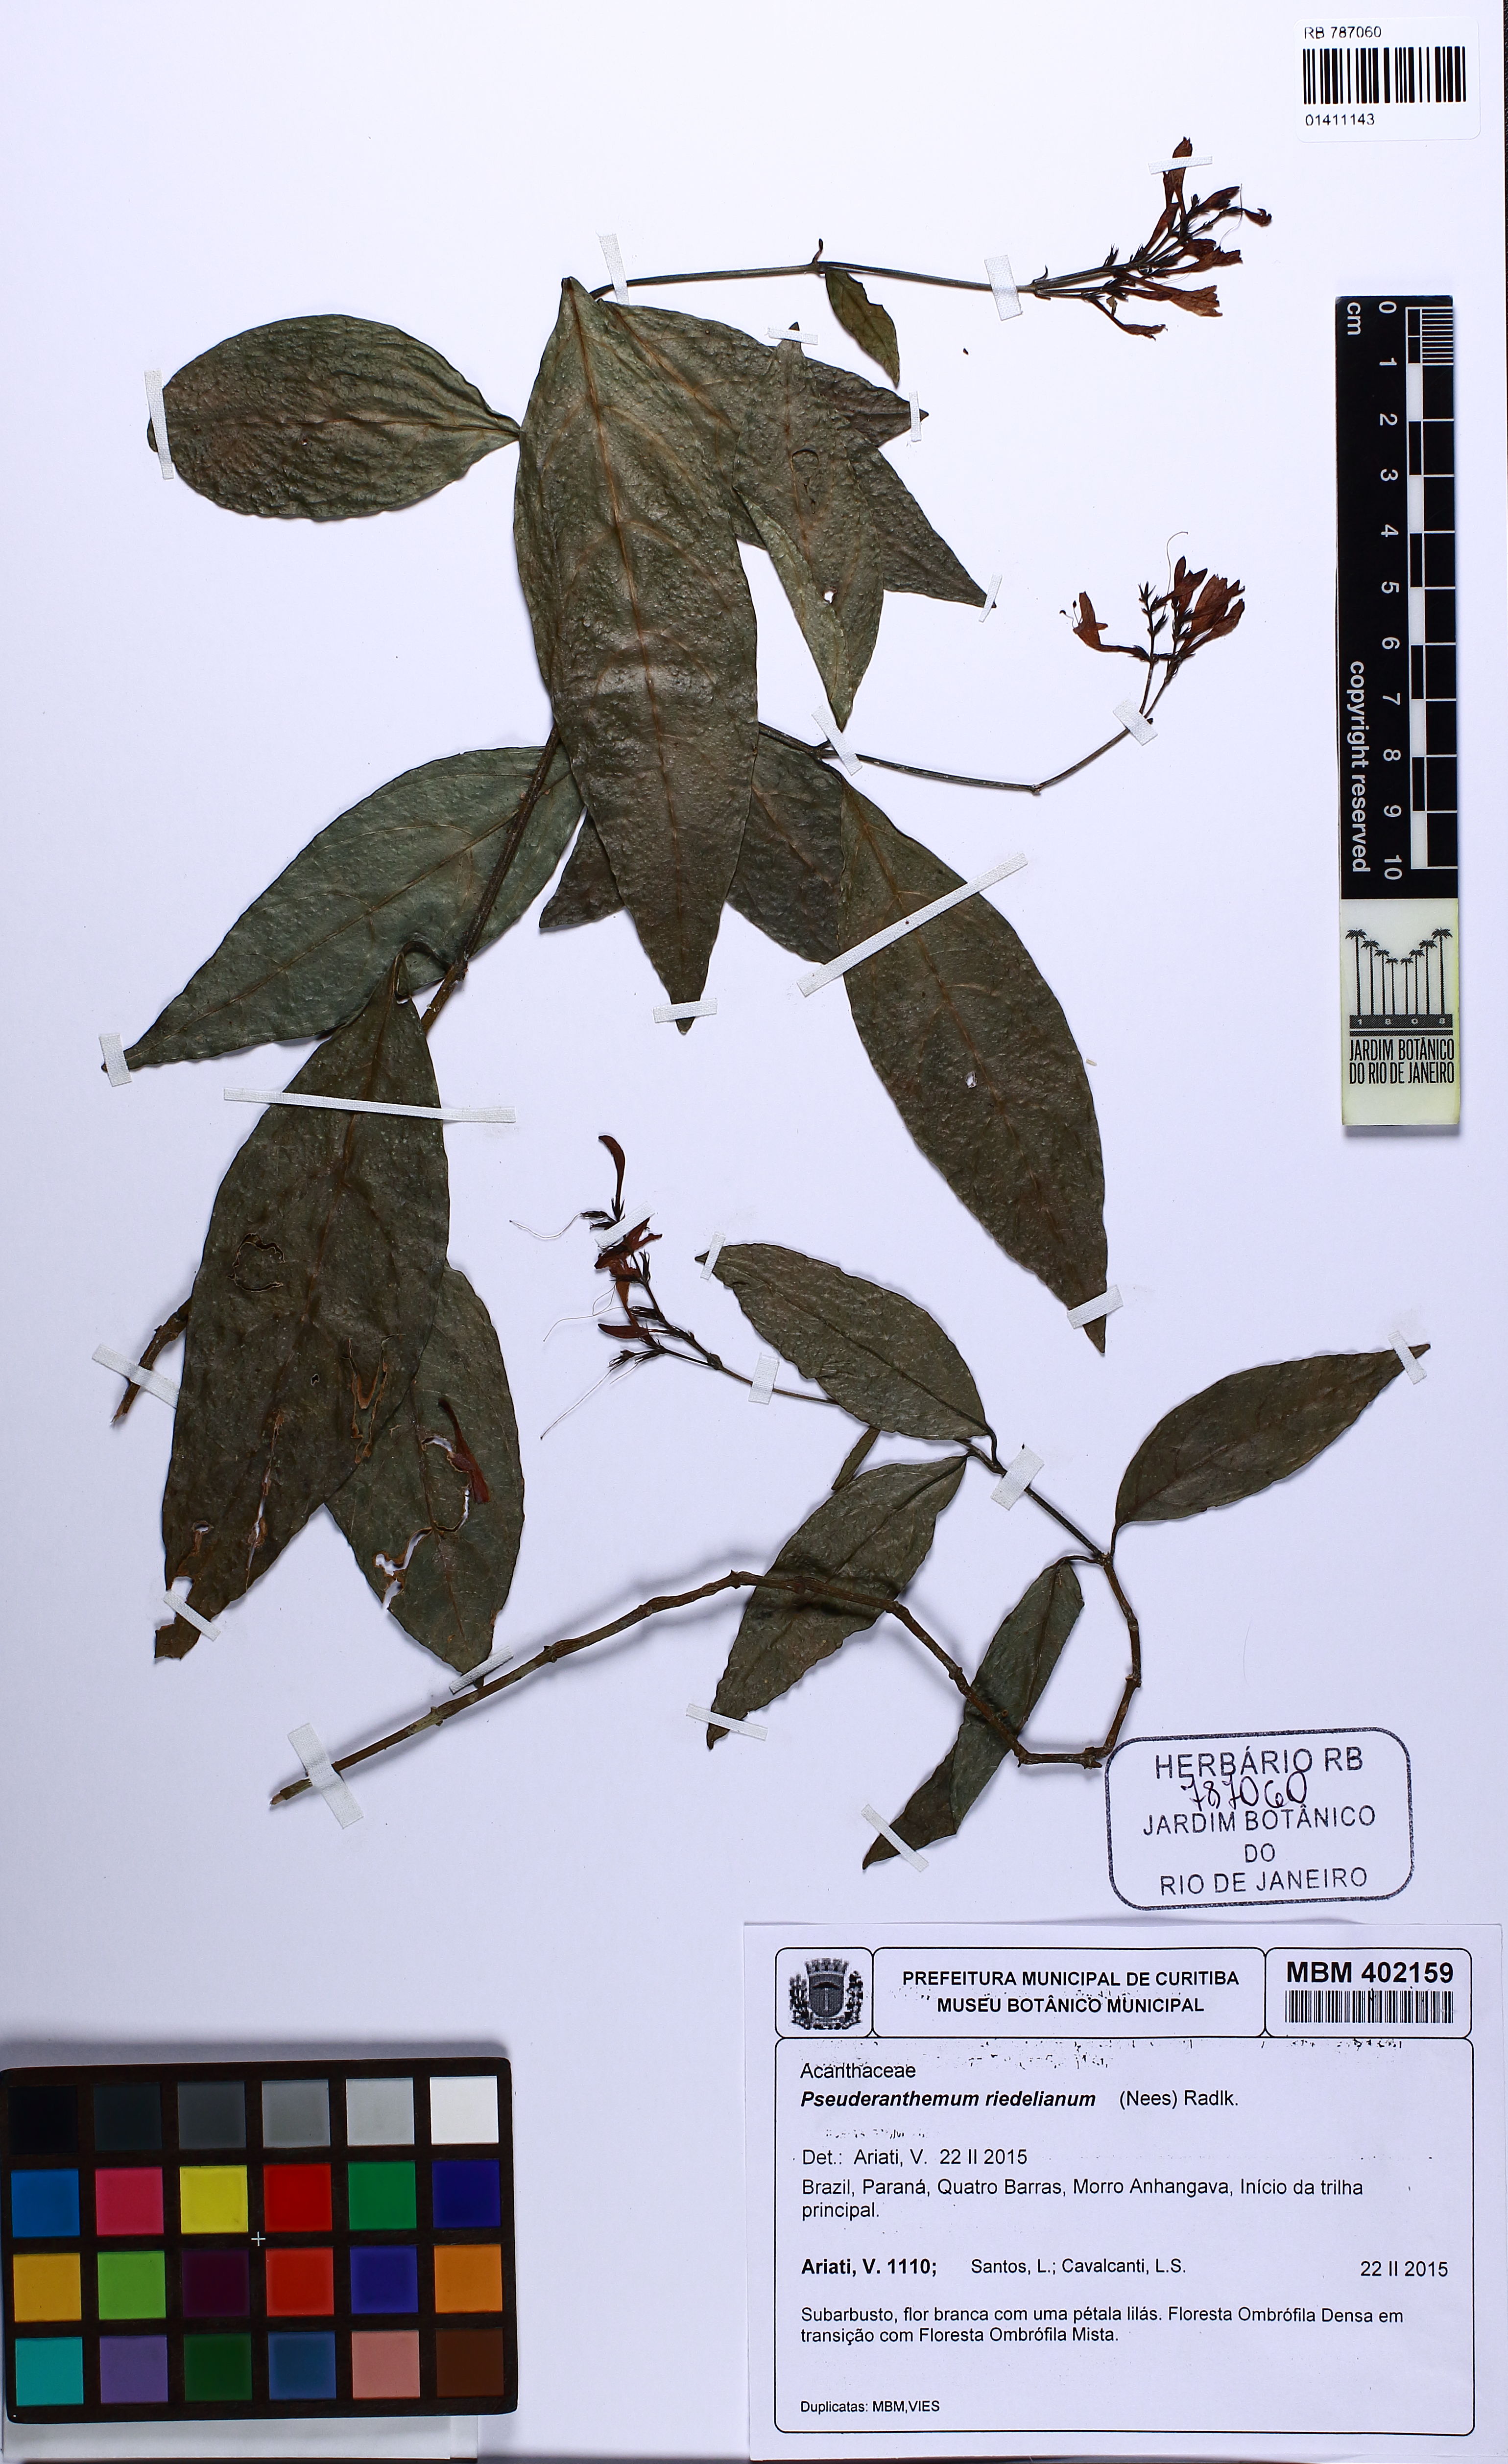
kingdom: Plantae
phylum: Tracheophyta
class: Magnoliopsida
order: Lamiales
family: Acanthaceae
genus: Pseuderanthemum
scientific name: Pseuderanthemum riedelianum
